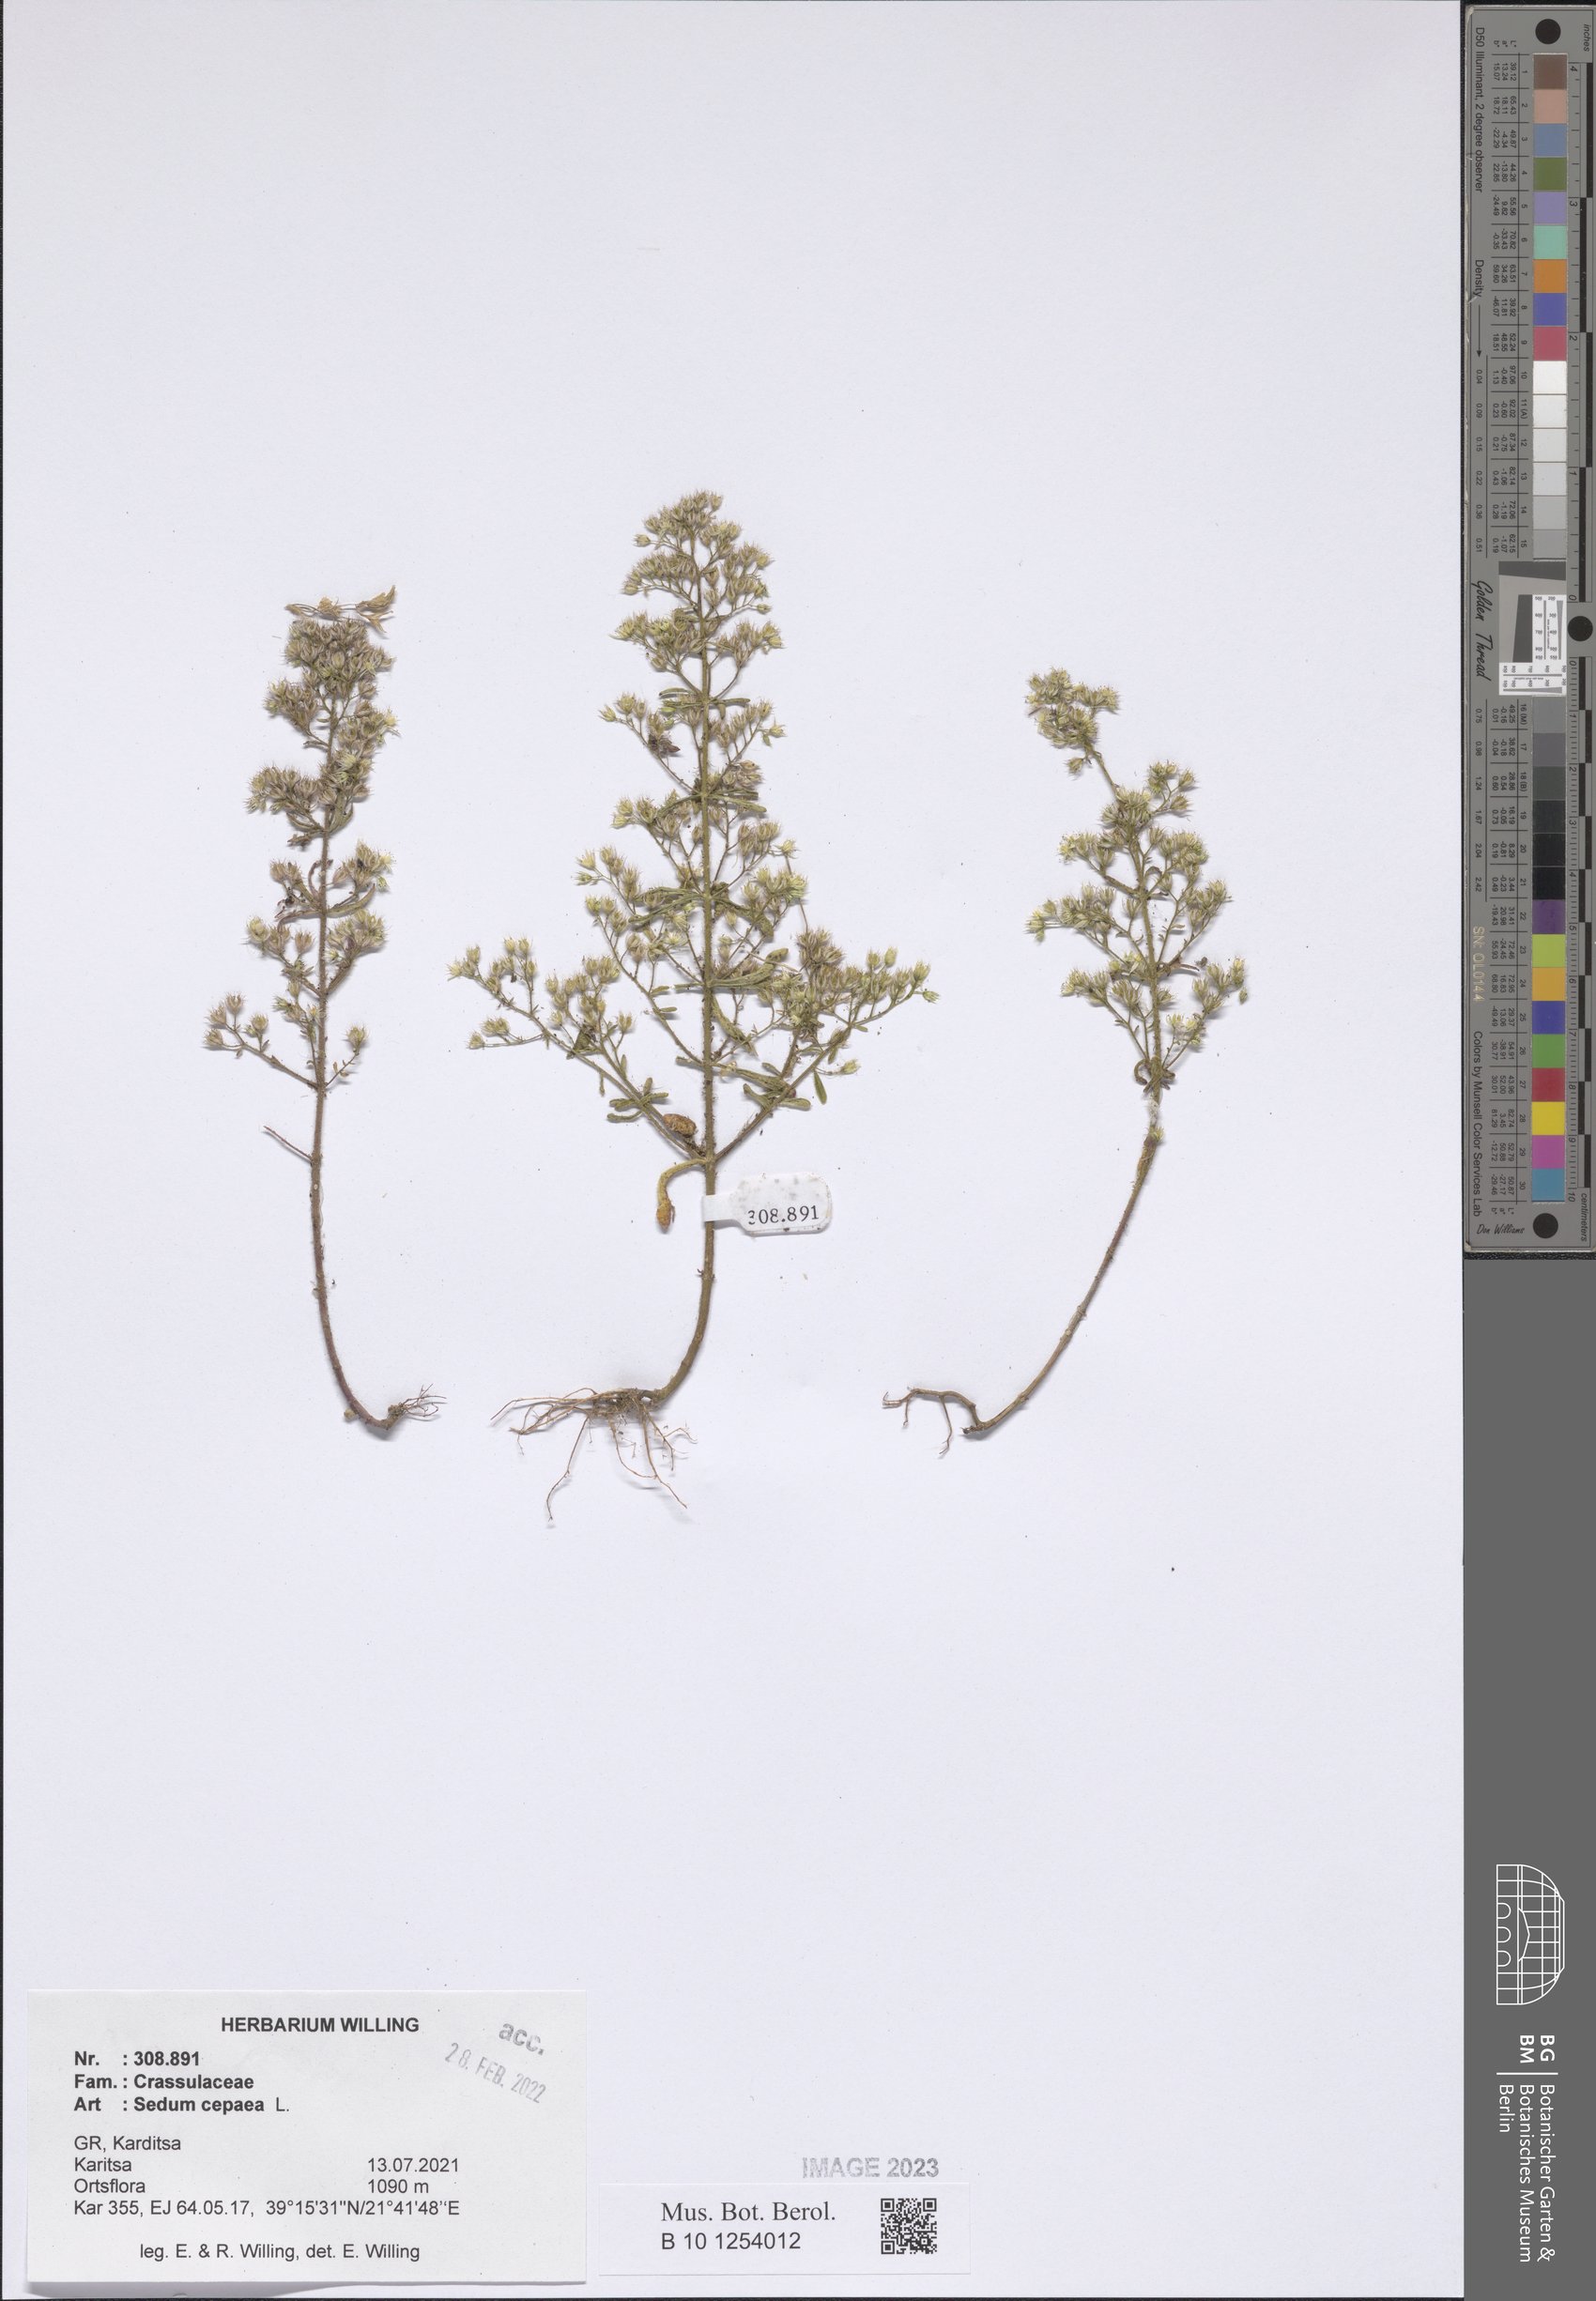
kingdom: Plantae
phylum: Tracheophyta
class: Magnoliopsida
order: Saxifragales
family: Crassulaceae
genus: Sedum
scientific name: Sedum cepaea
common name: Pink stonecrop
